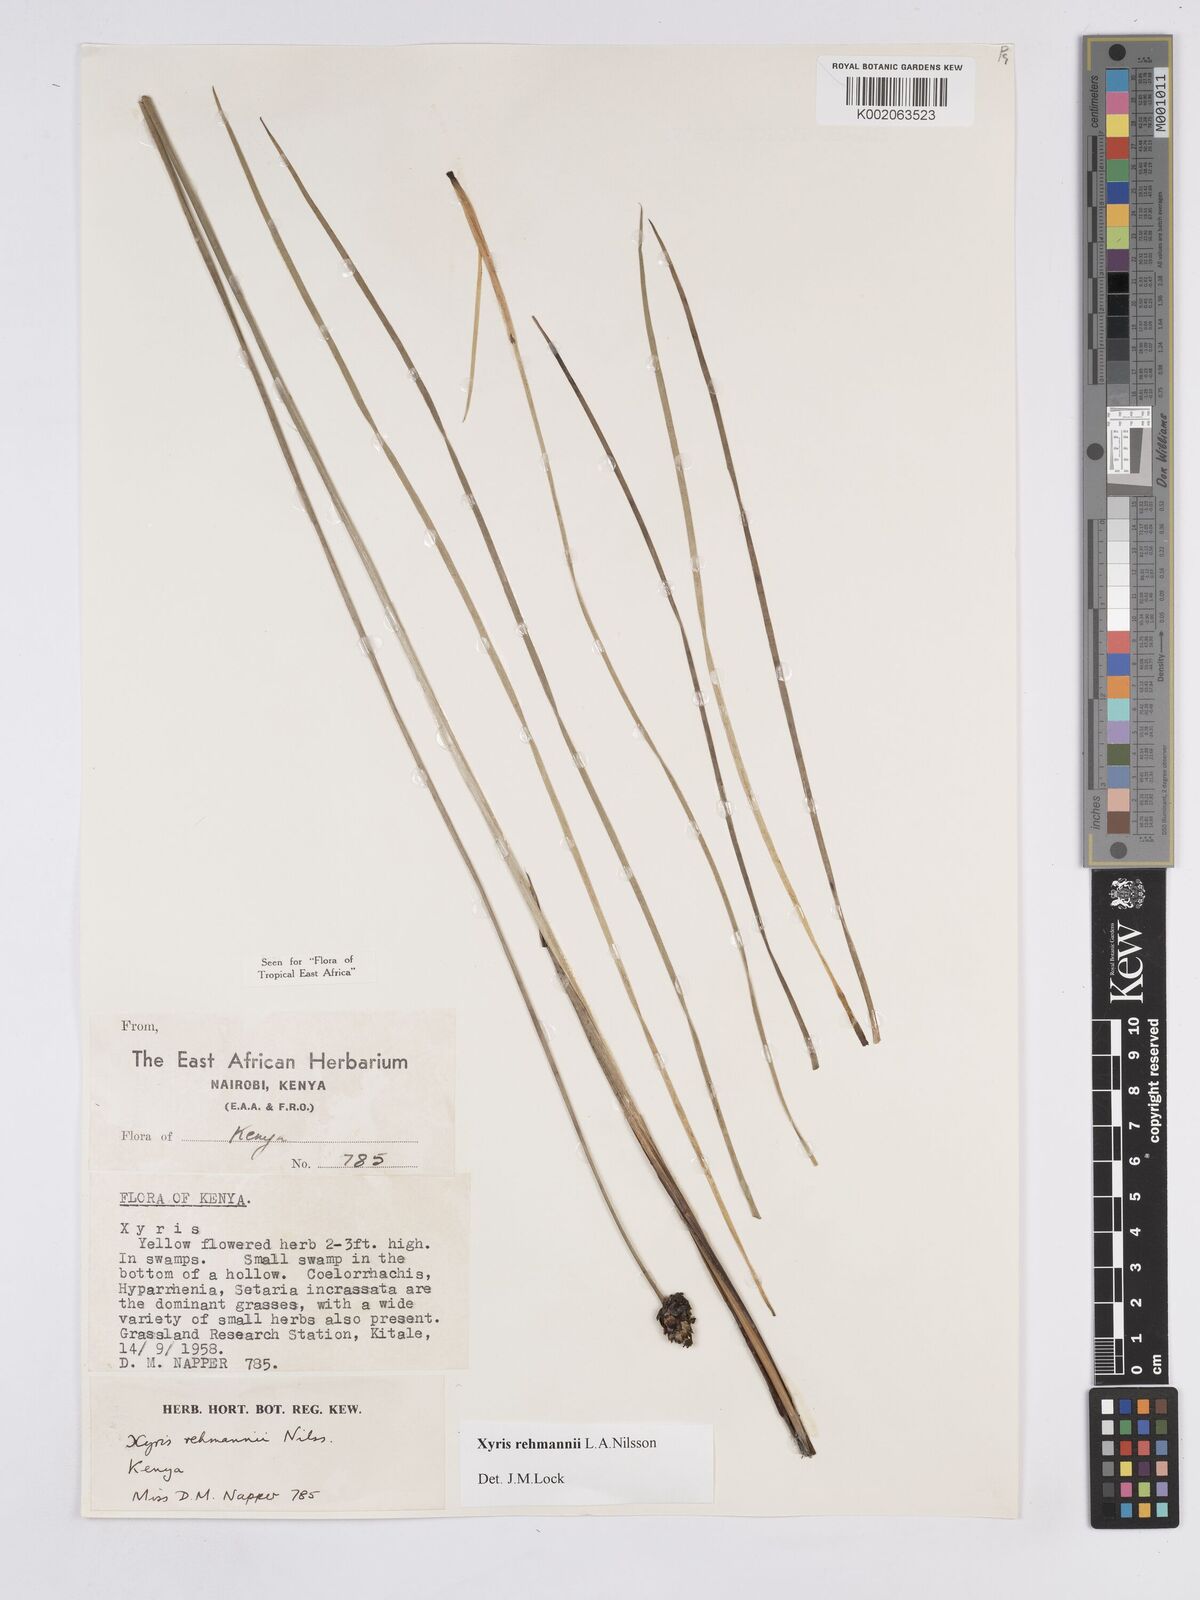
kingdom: Plantae
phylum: Tracheophyta
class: Liliopsida
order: Poales
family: Xyridaceae
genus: Xyris
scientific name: Xyris rehmannii
